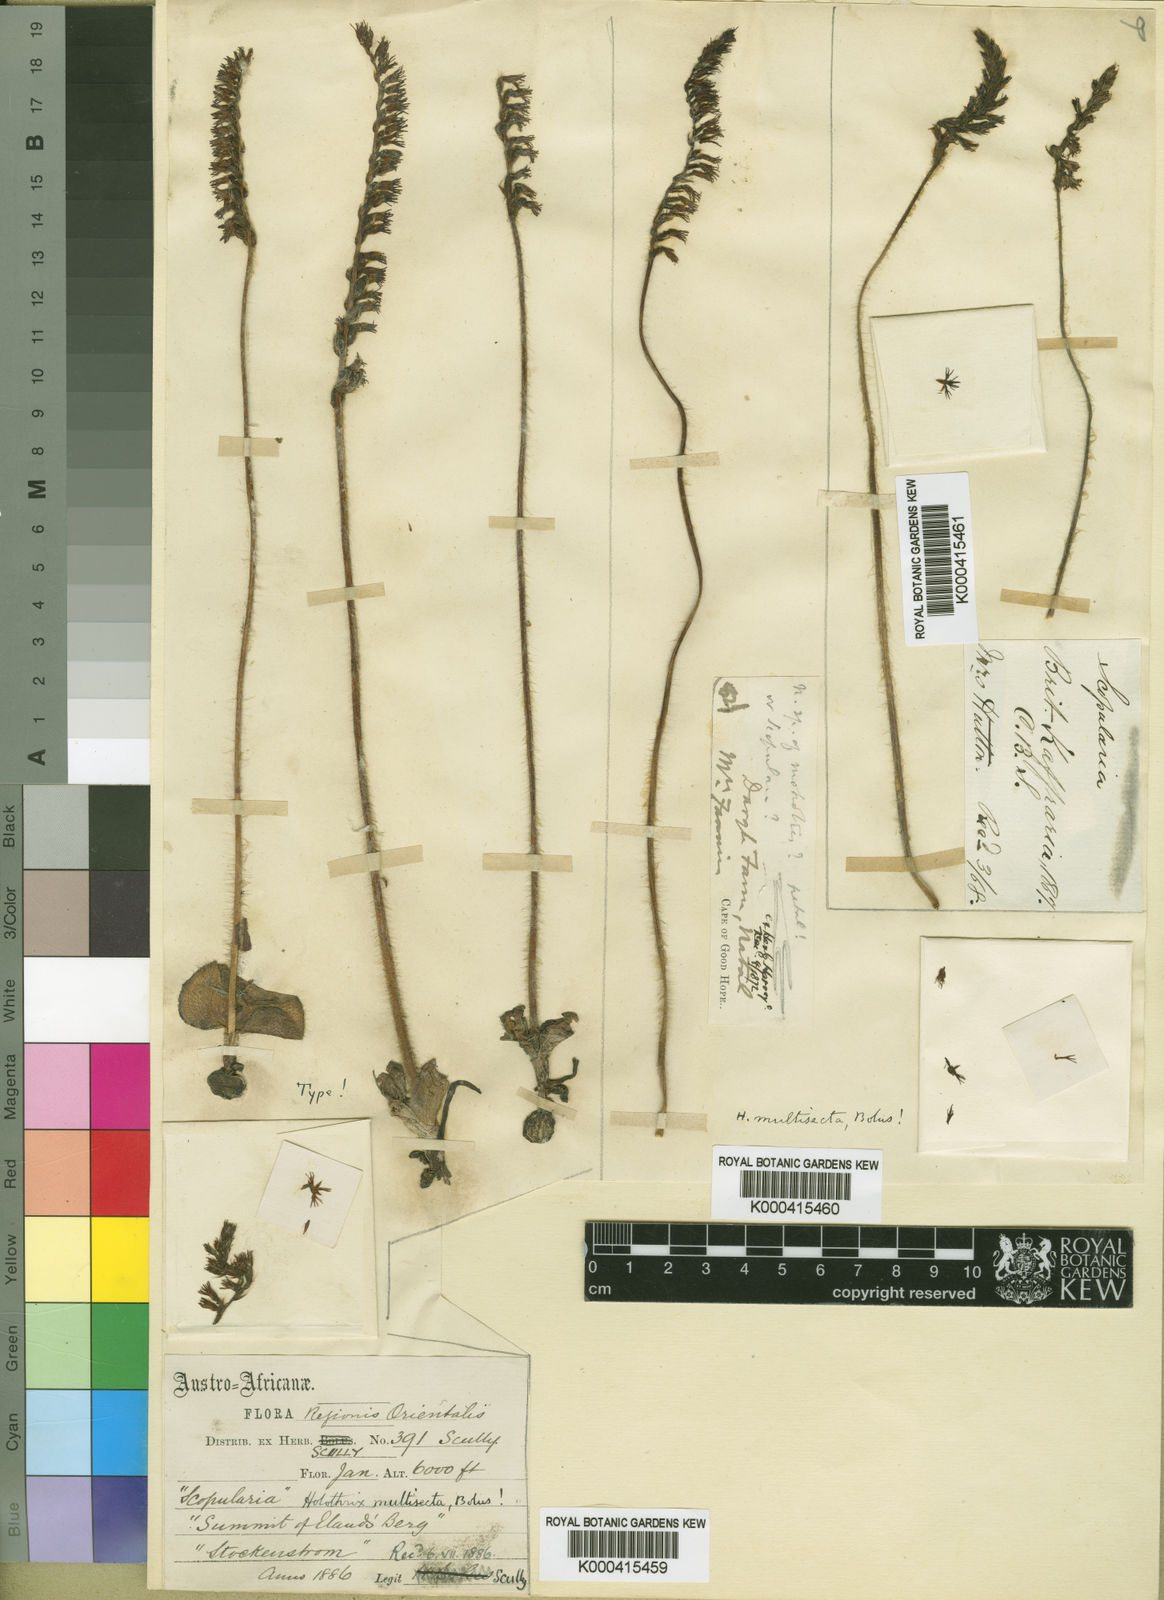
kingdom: Plantae
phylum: Tracheophyta
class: Liliopsida
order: Asparagales
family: Orchidaceae
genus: Holothrix
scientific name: Holothrix scopularia
